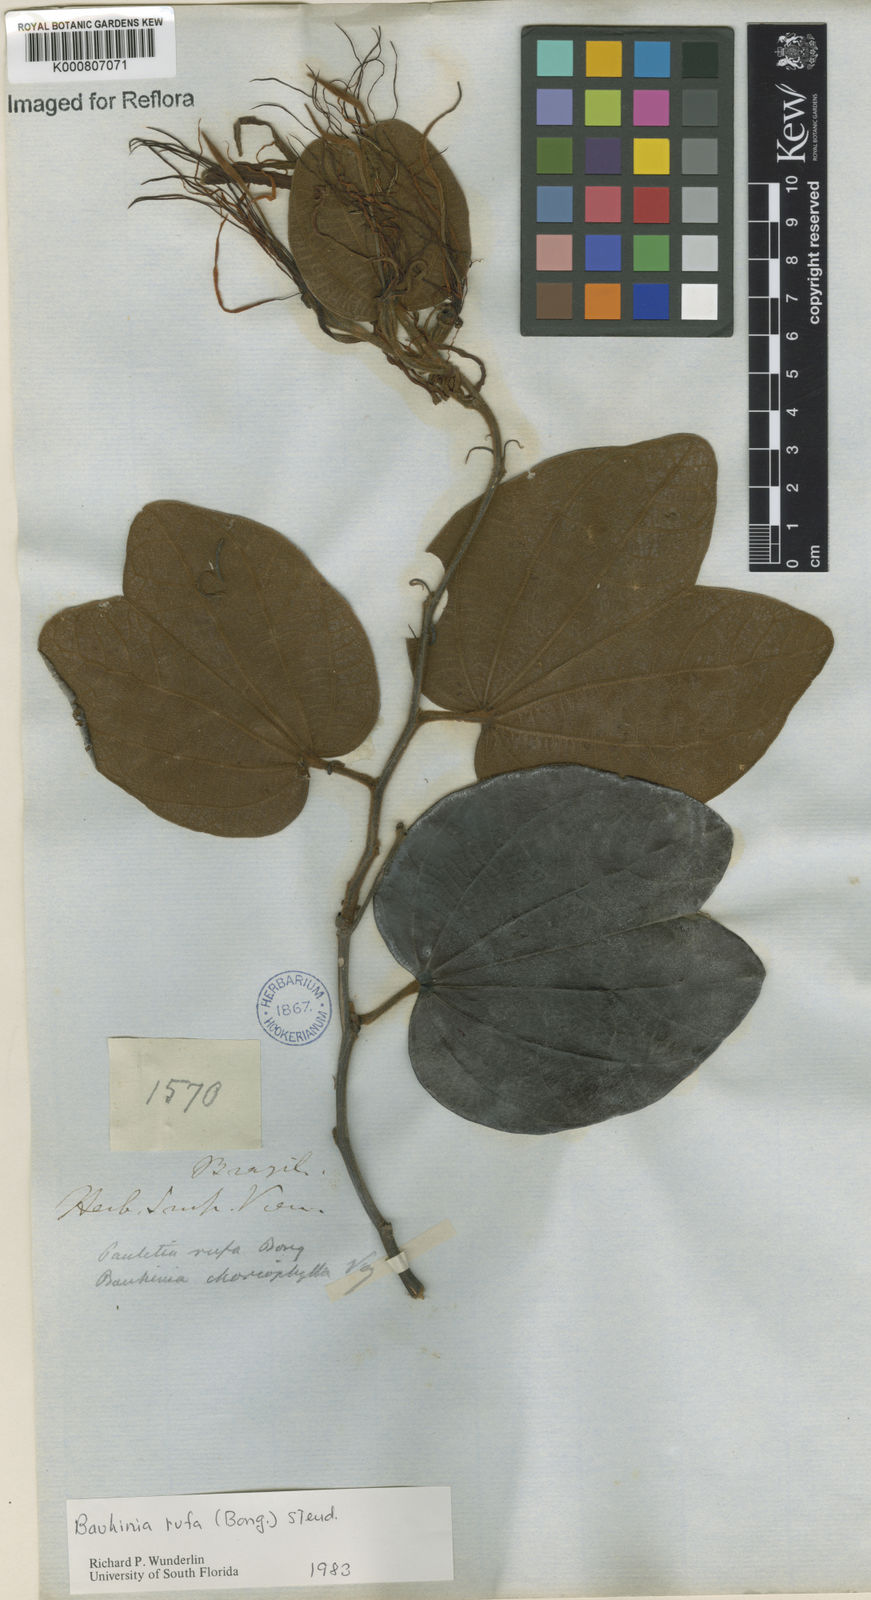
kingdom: Plantae
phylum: Tracheophyta
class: Magnoliopsida
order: Fabales
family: Fabaceae
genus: Bauhinia
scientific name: Bauhinia rufa
